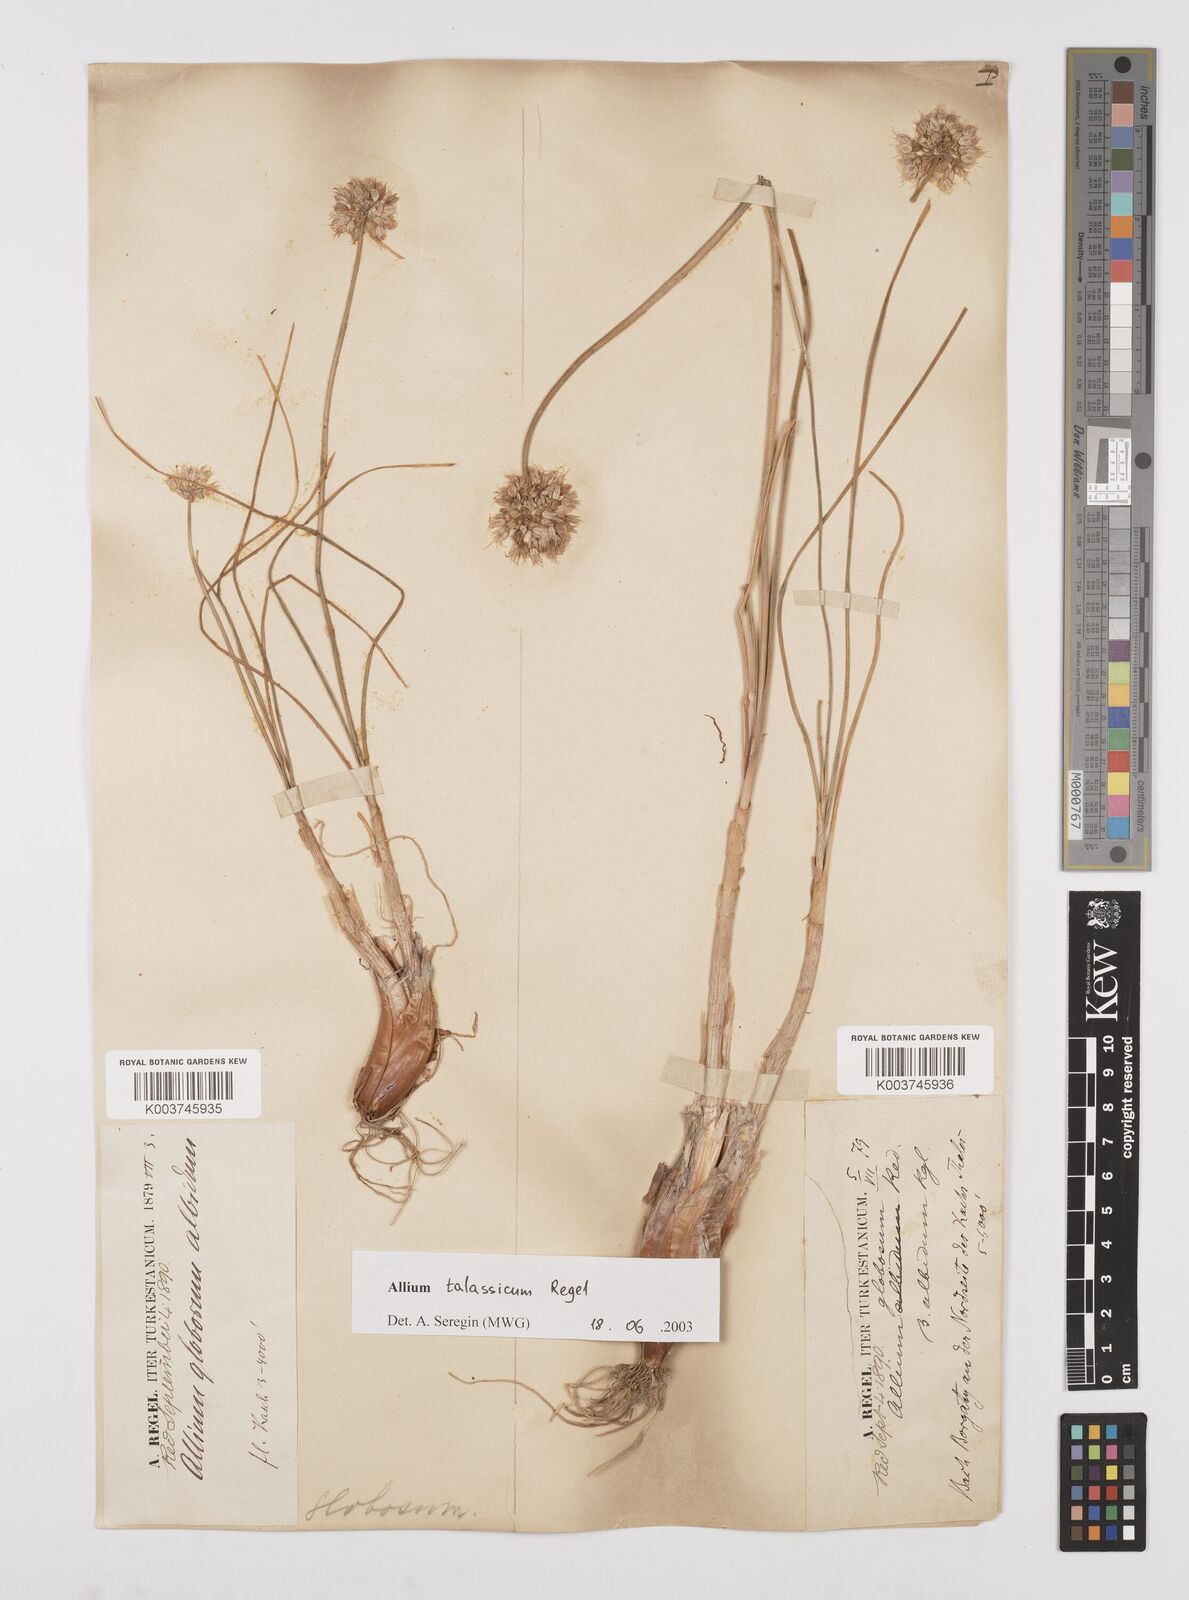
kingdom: Plantae
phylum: Tracheophyta
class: Liliopsida
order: Asparagales
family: Amaryllidaceae
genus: Allium
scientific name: Allium talassicum
